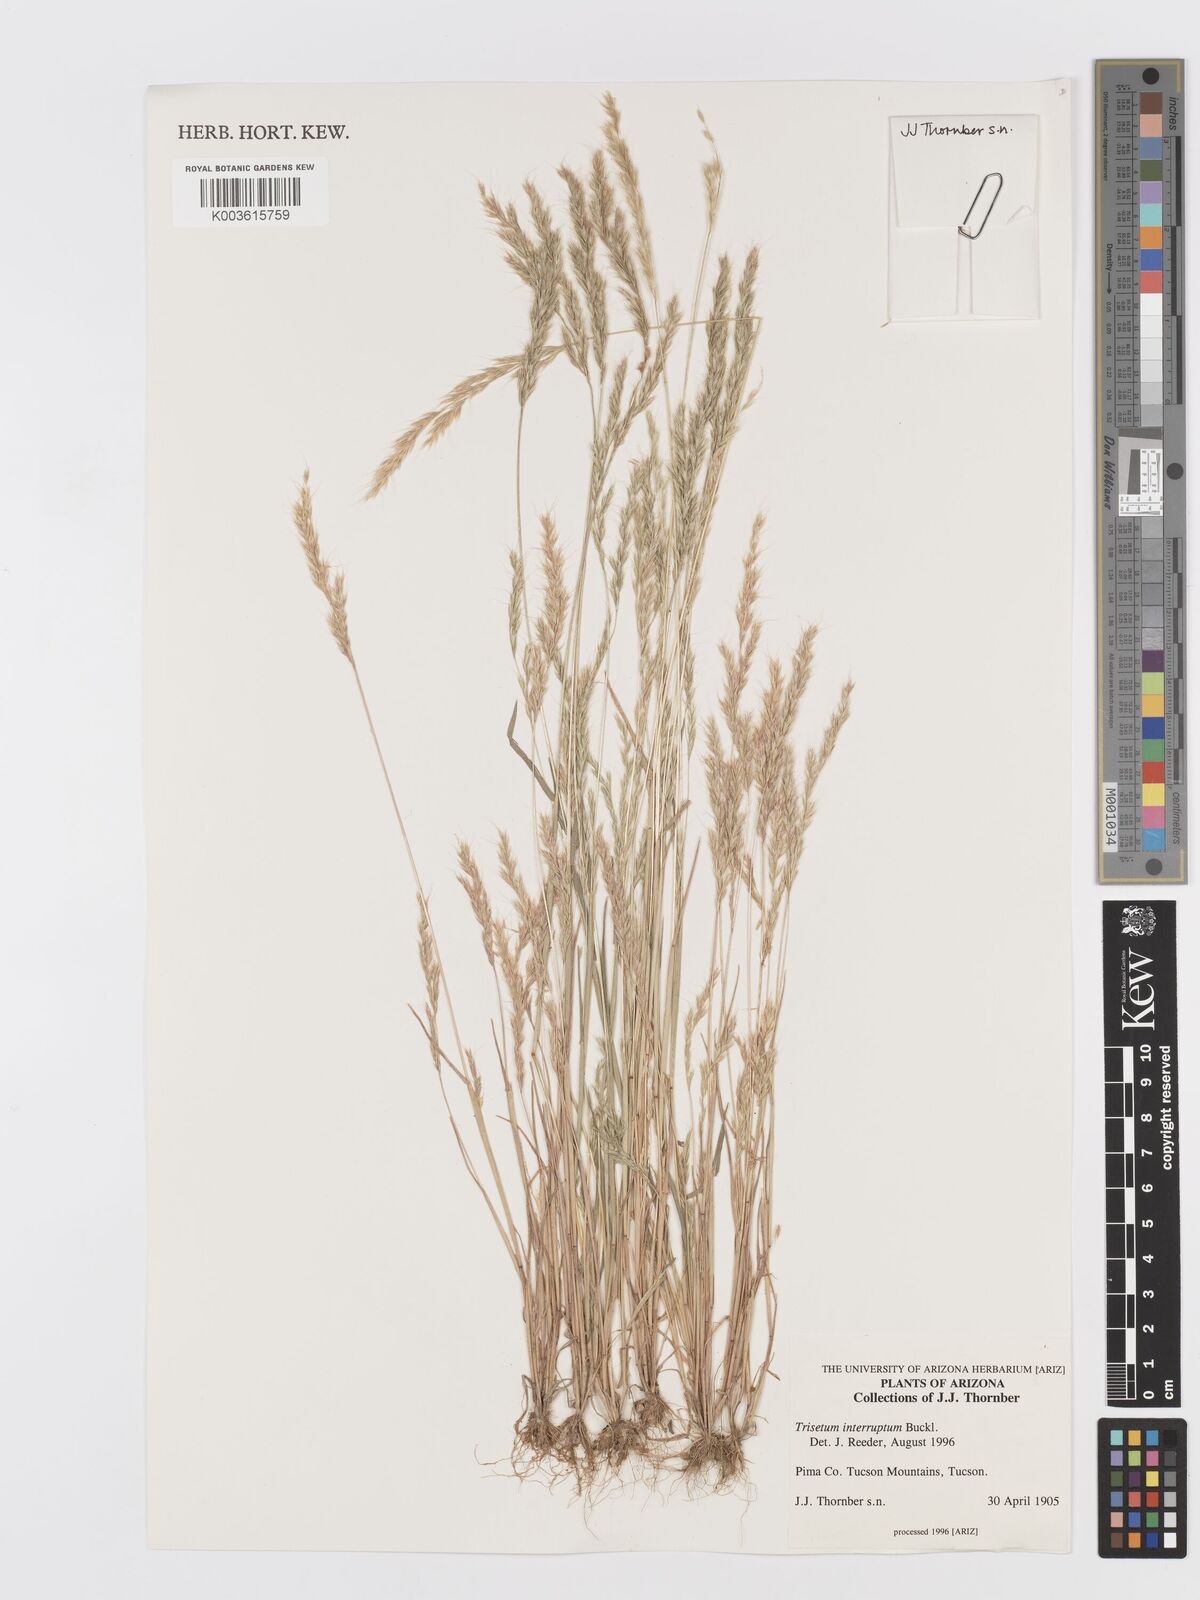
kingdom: Plantae
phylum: Tracheophyta
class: Liliopsida
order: Poales
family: Poaceae
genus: Trisetum
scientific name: Trisetum
